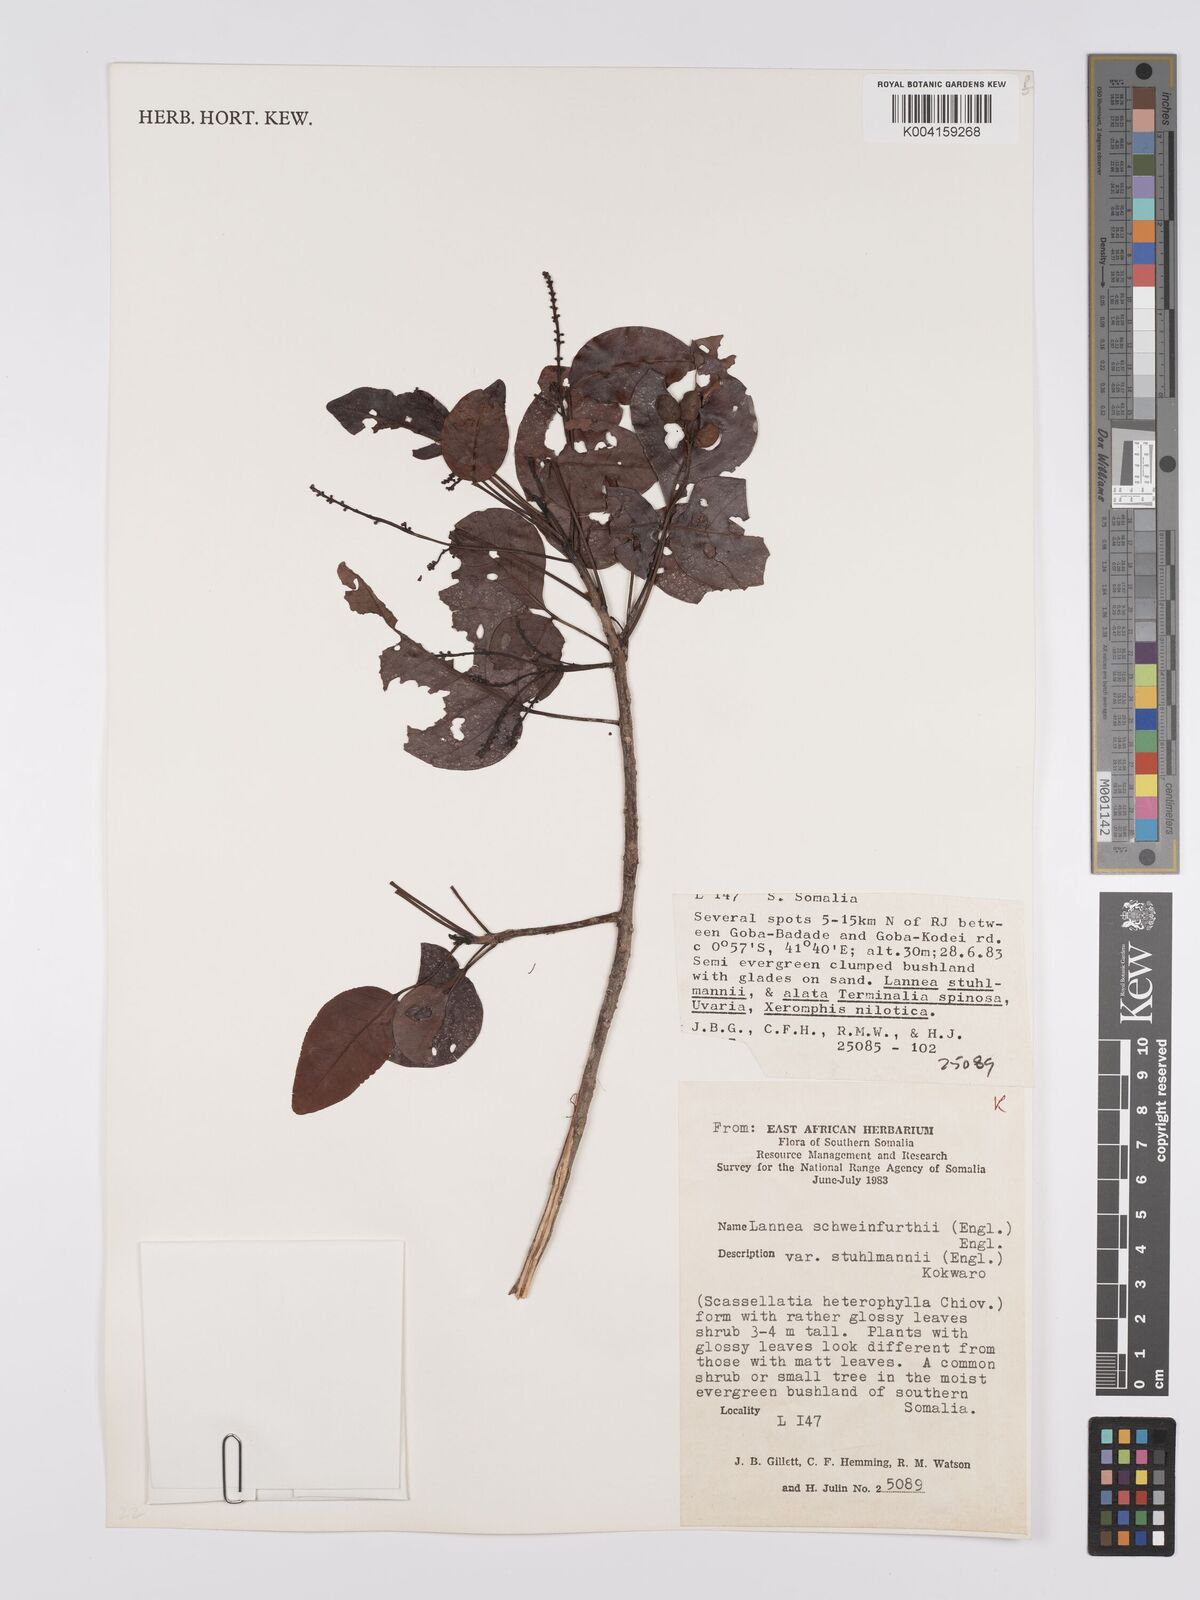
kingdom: Plantae
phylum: Tracheophyta
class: Magnoliopsida
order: Sapindales
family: Anacardiaceae
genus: Lannea
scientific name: Lannea schweinfurthii
